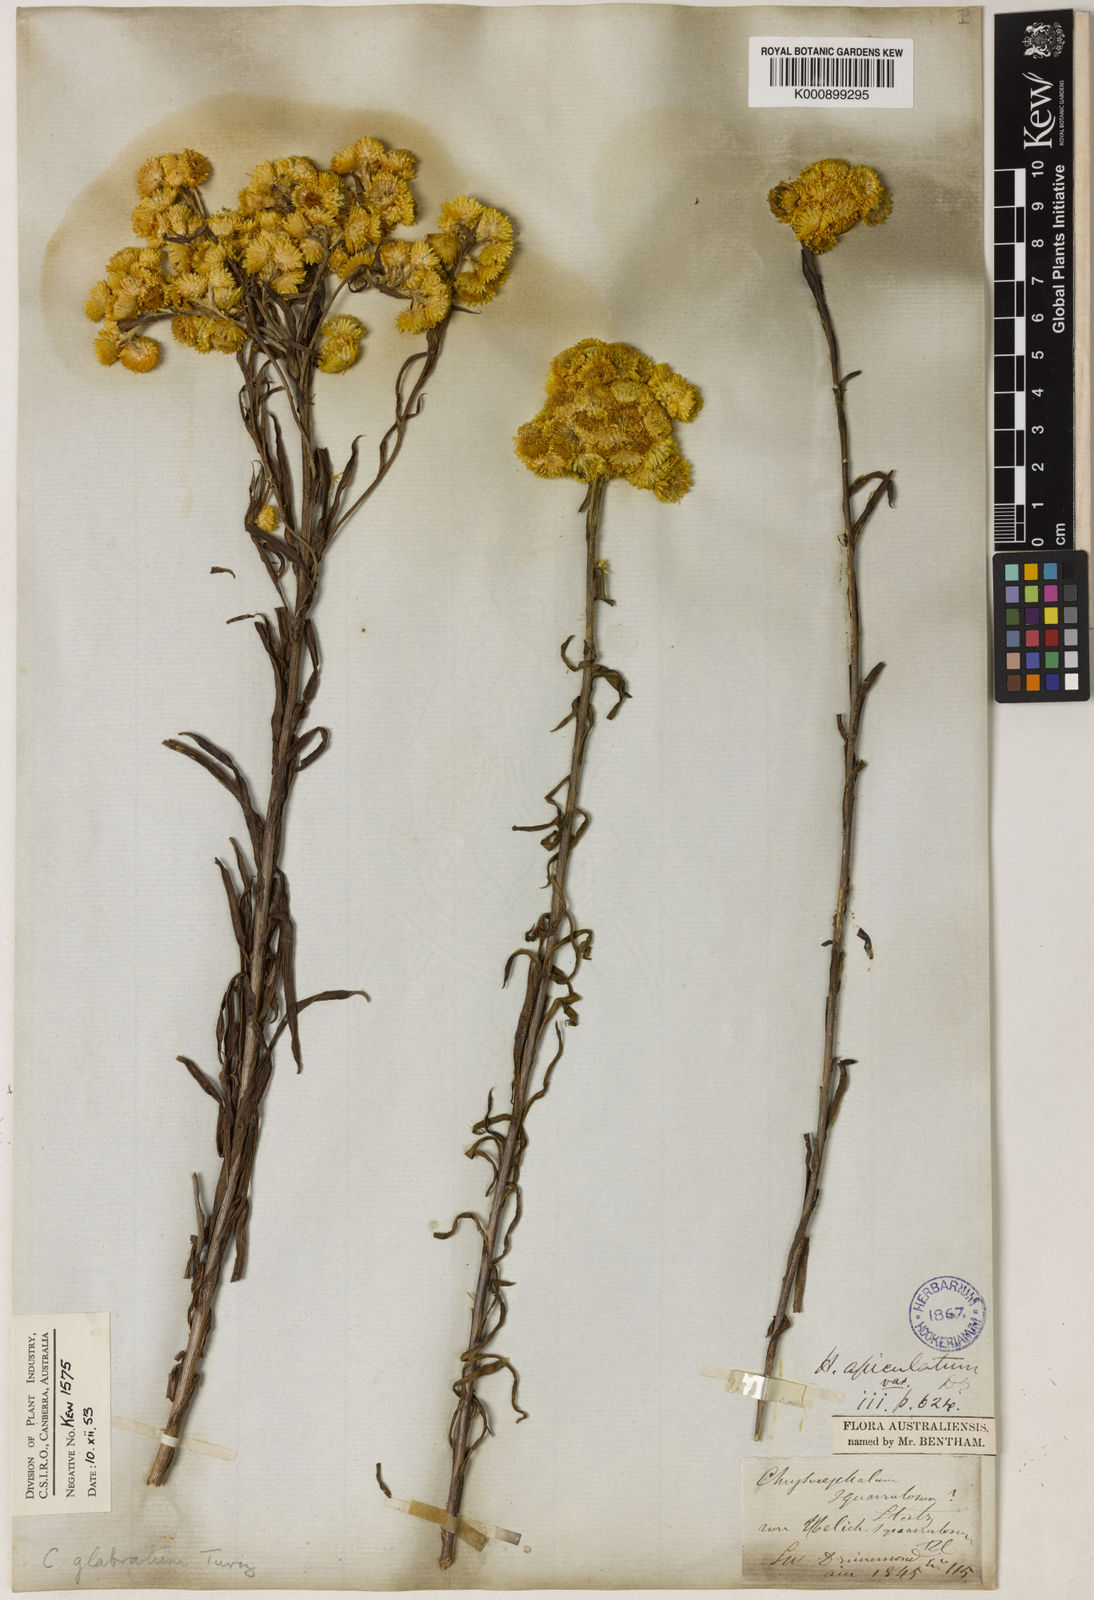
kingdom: Plantae
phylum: Tracheophyta
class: Magnoliopsida
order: Asterales
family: Asteraceae
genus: Chrysocephalum
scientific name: Chrysocephalum apiculatum
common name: Common everlasting
